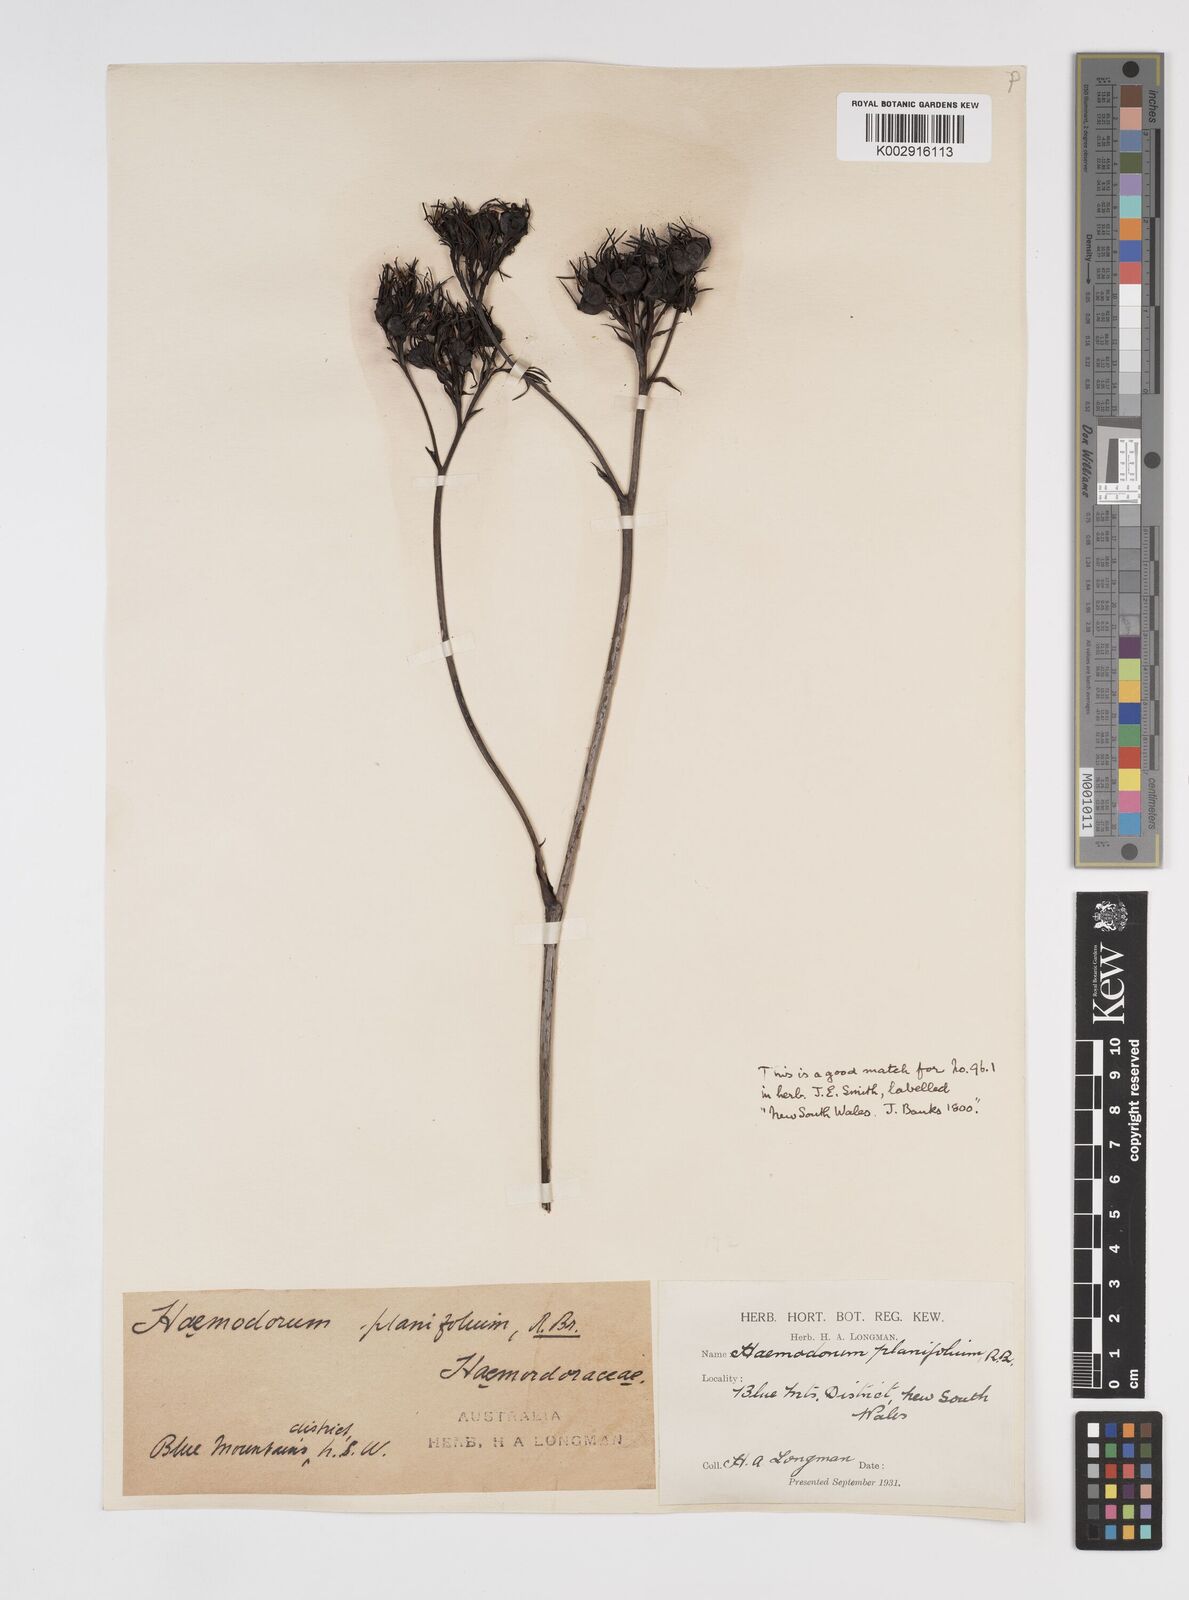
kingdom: Plantae
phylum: Tracheophyta
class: Liliopsida
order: Commelinales
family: Haemodoraceae
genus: Haemodorum
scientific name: Haemodorum planifolium
